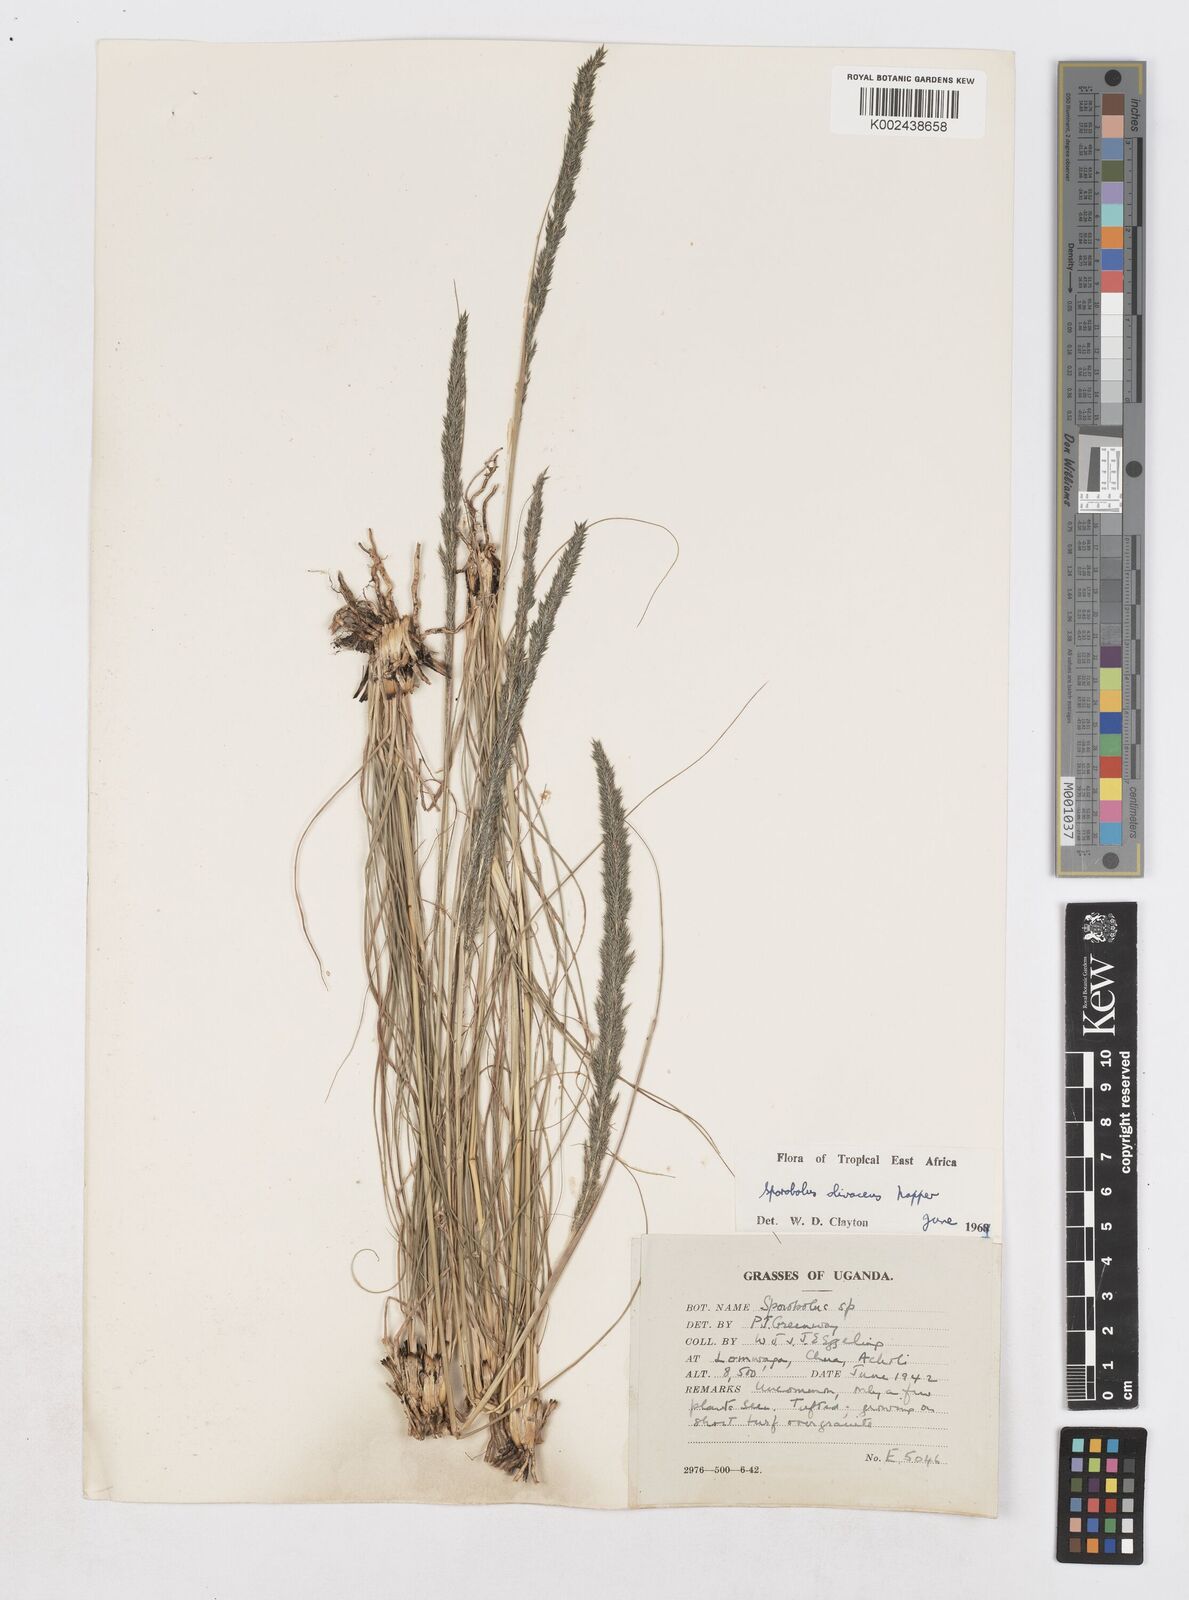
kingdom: Plantae
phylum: Tracheophyta
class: Liliopsida
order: Poales
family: Poaceae
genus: Sporobolus
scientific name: Sporobolus olivaceus
